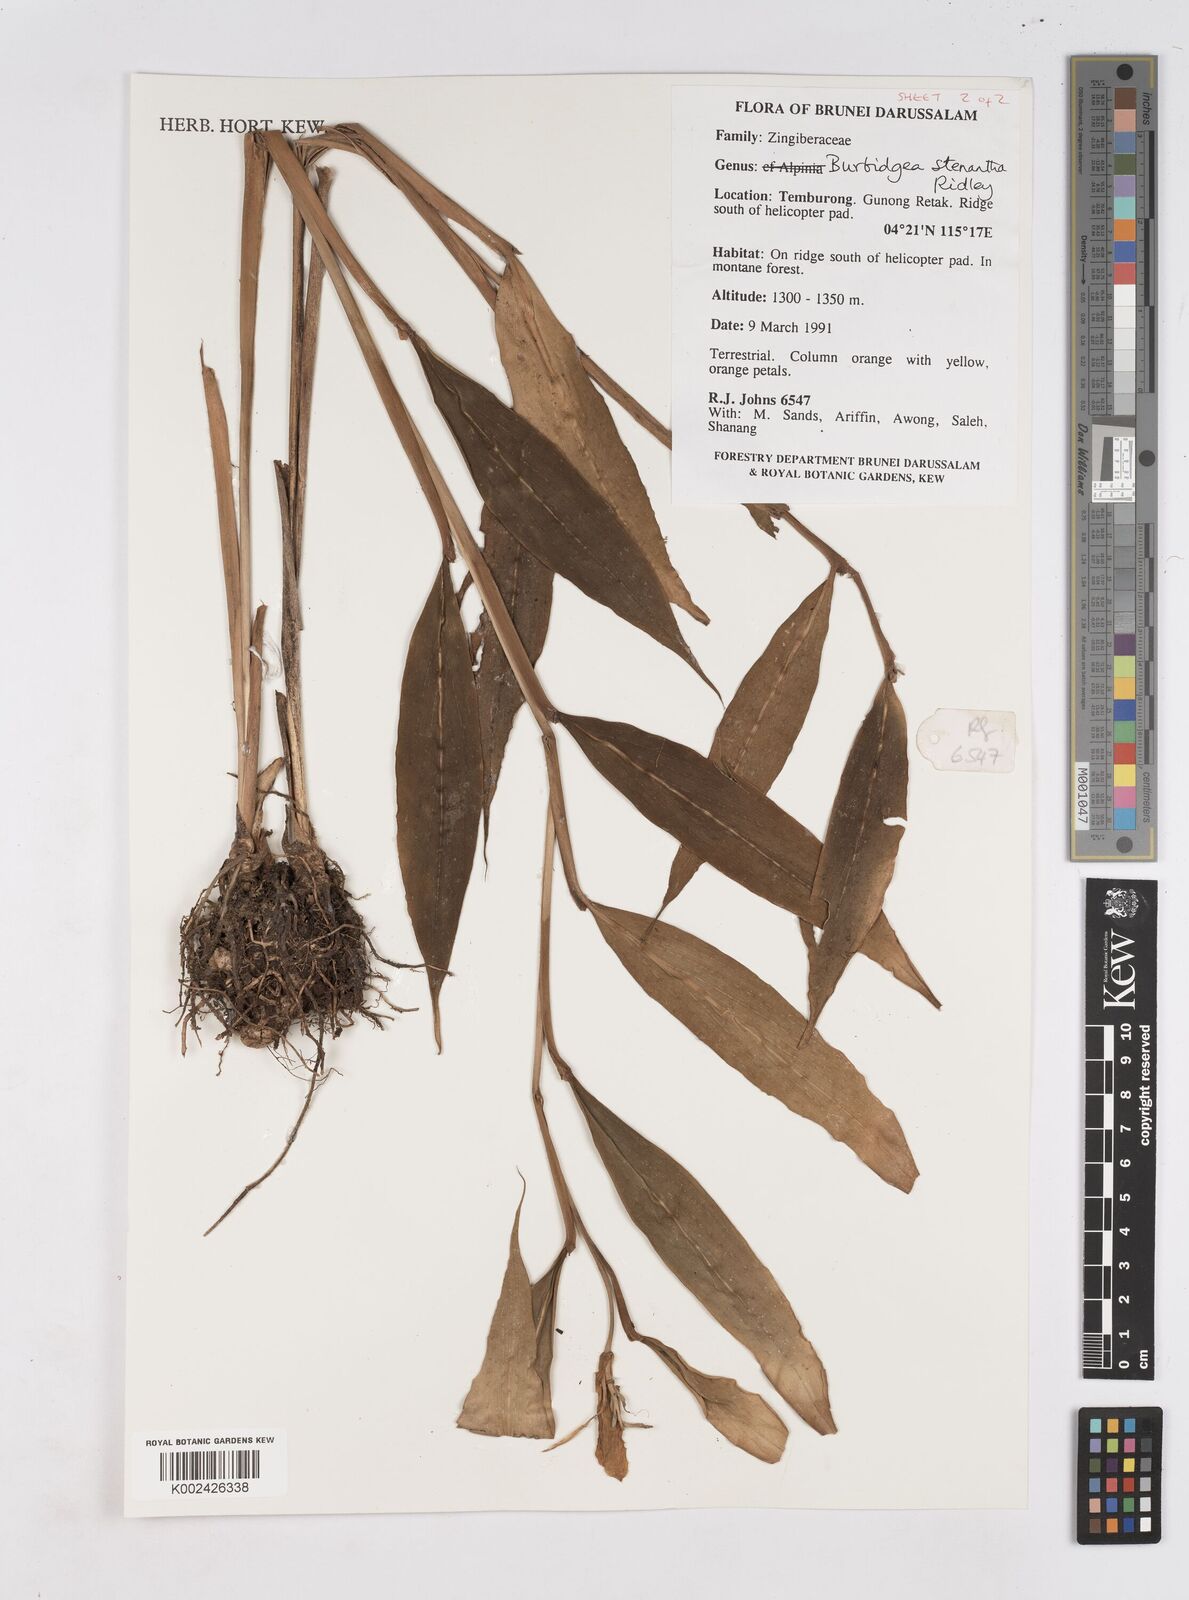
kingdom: Plantae
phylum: Tracheophyta
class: Liliopsida
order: Zingiberales
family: Zingiberaceae
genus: Burbidgea
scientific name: Burbidgea stenantha
